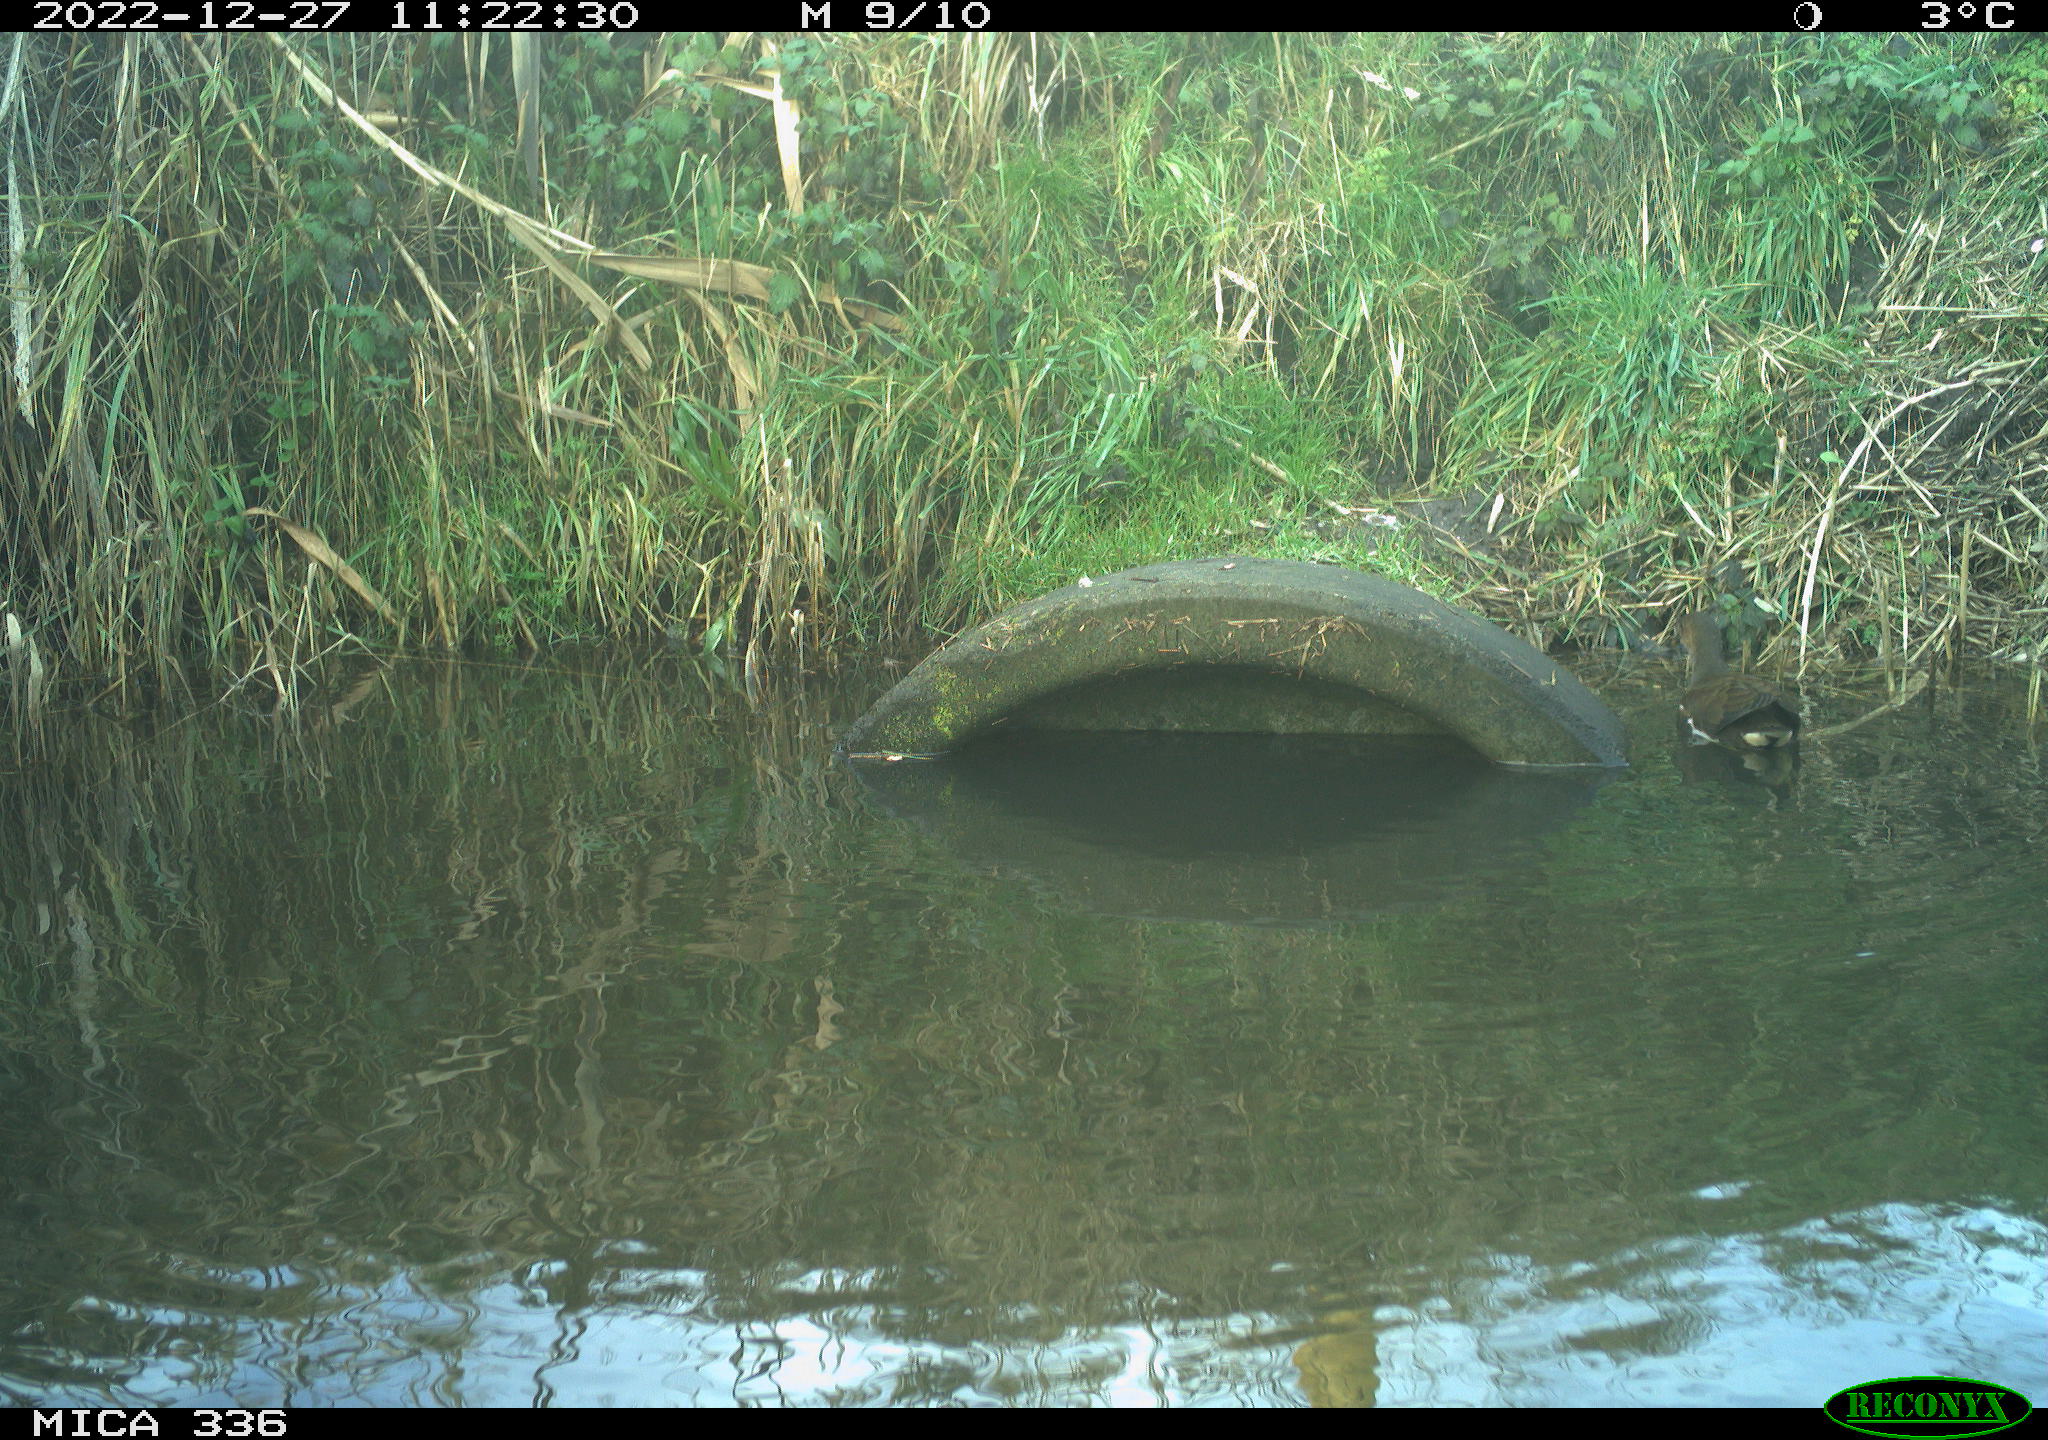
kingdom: Animalia
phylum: Chordata
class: Aves
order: Gruiformes
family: Rallidae
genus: Gallinula
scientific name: Gallinula chloropus
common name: Common moorhen
